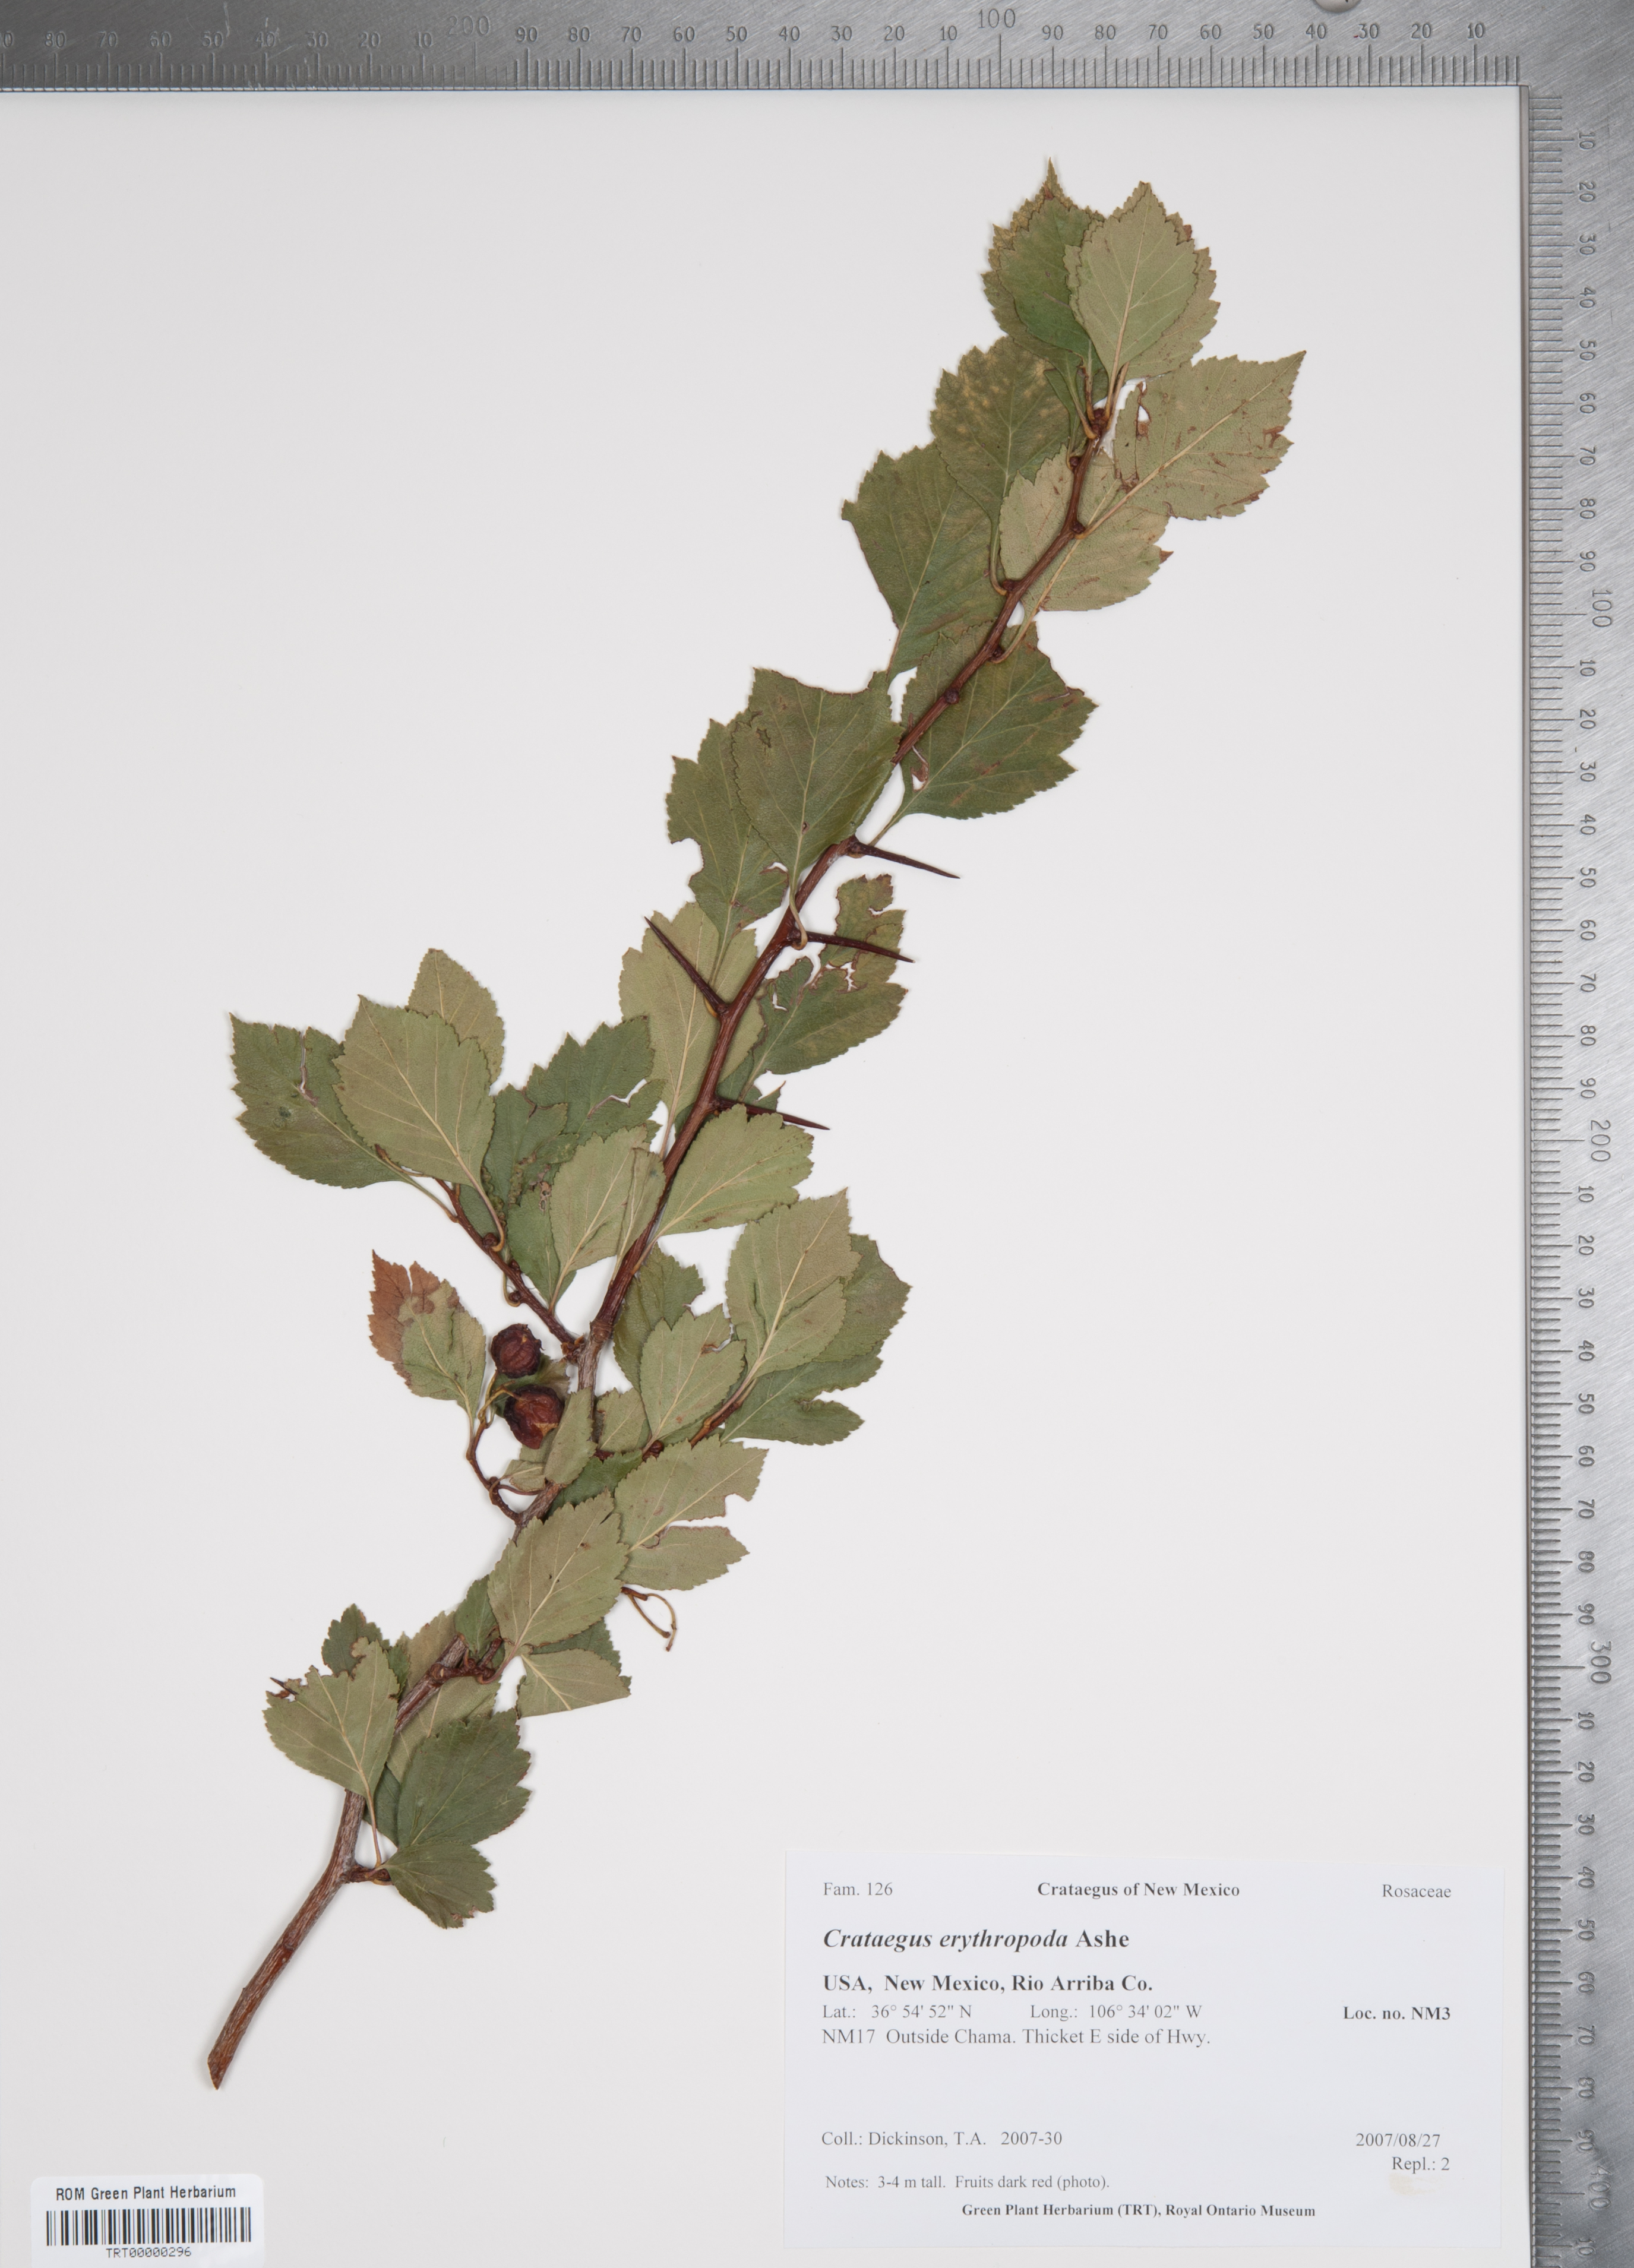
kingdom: Plantae
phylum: Tracheophyta
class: Magnoliopsida
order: Rosales
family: Rosaceae
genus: Crataegus
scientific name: Crataegus erythropoda
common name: Cerro hawthorn
